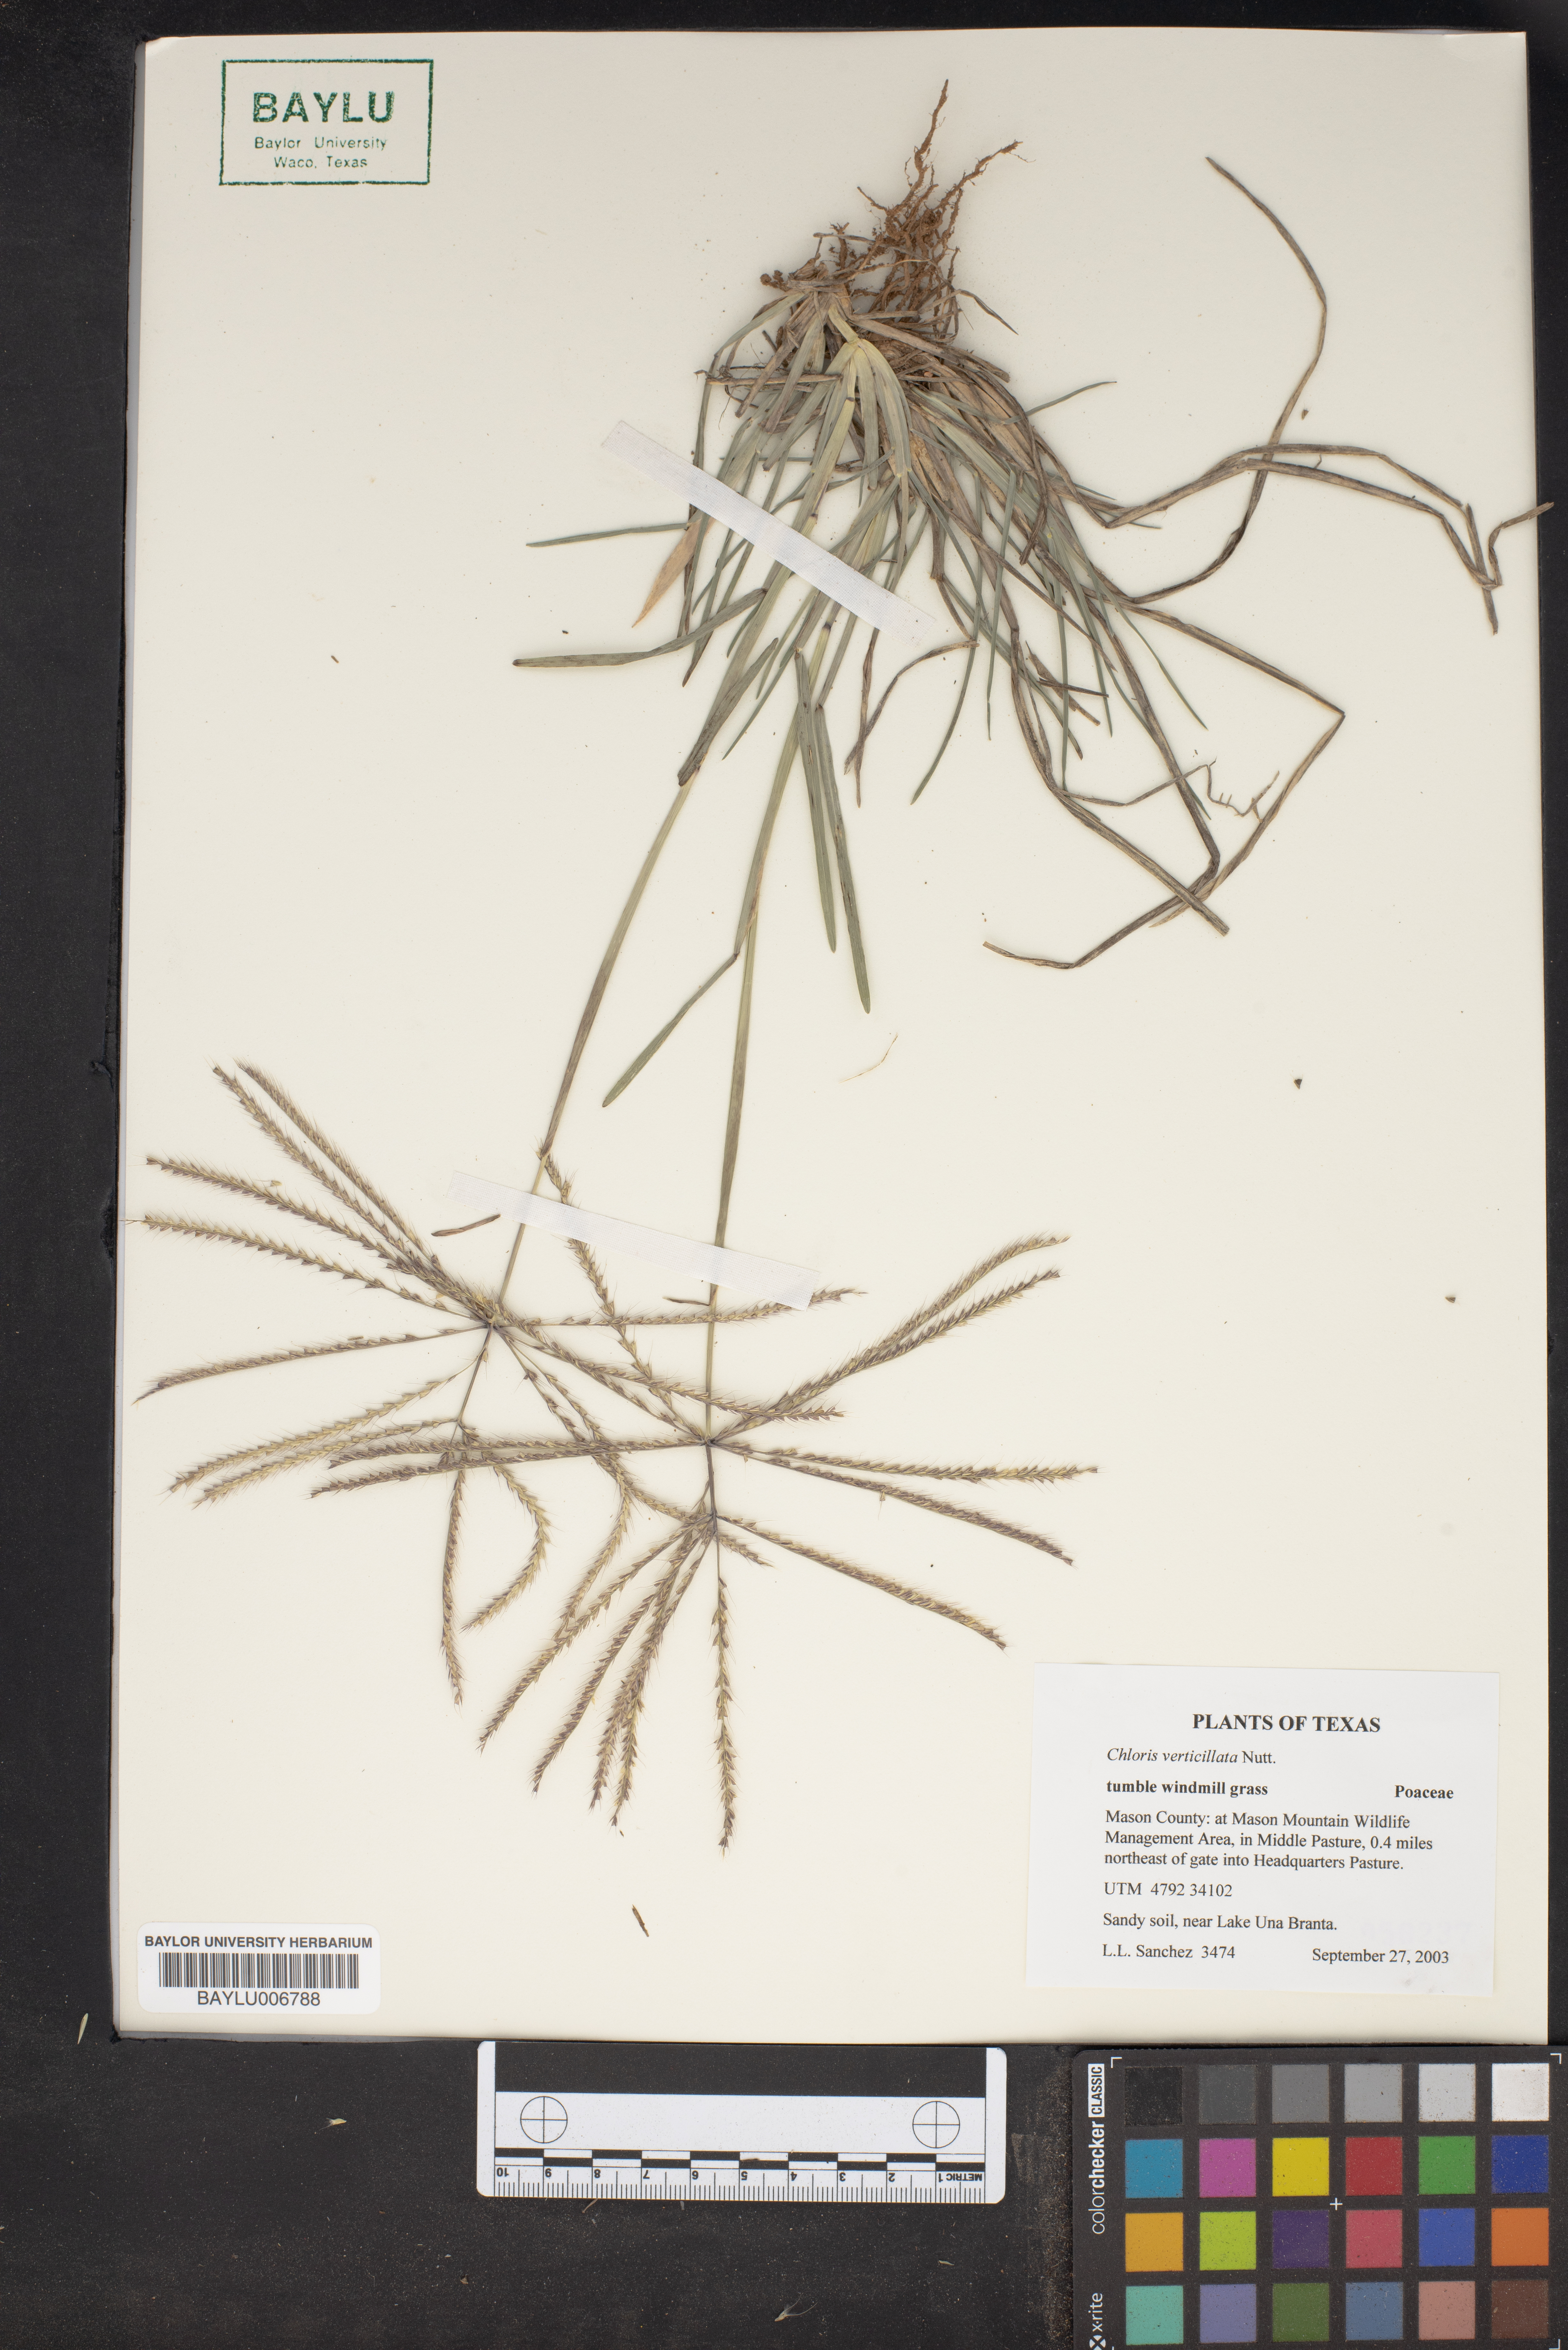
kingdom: Plantae
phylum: Tracheophyta
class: Liliopsida
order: Poales
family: Poaceae
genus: Chloris
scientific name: Chloris verticillata
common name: Tumble windmill grass
